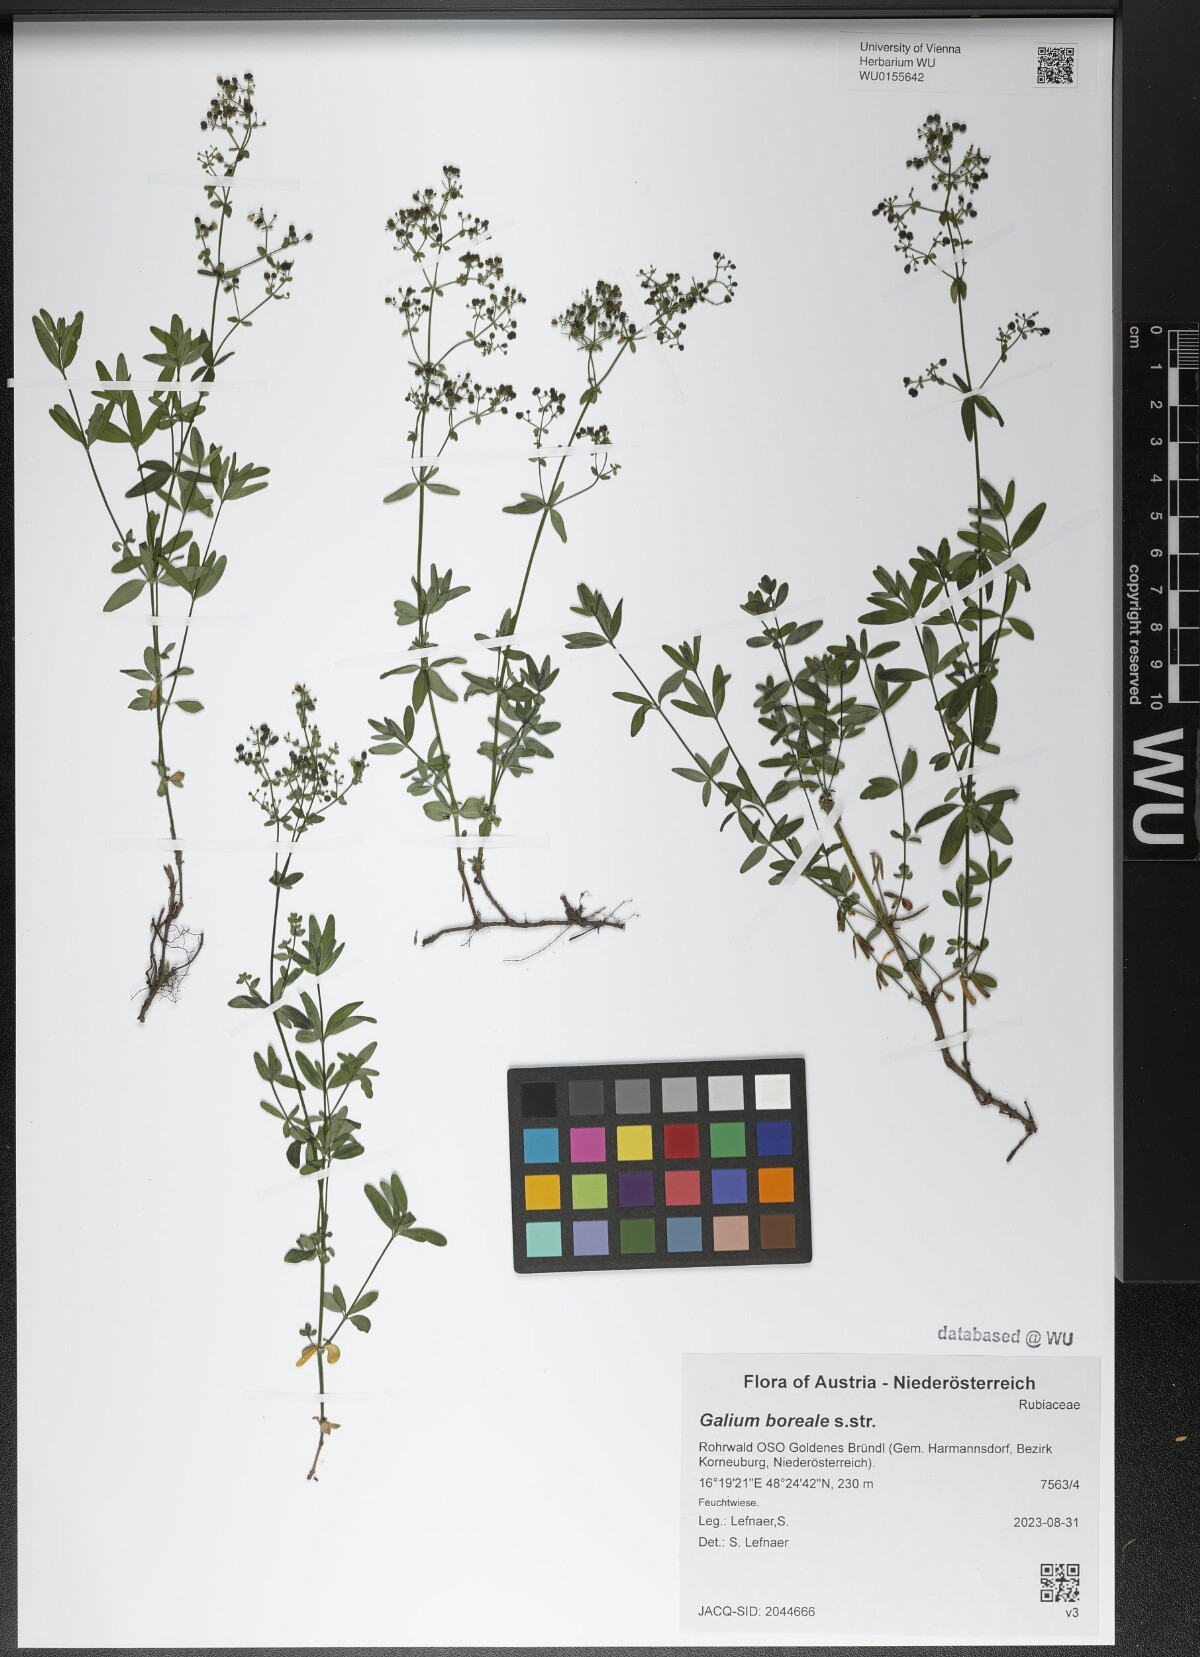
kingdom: Plantae
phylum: Tracheophyta
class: Magnoliopsida
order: Gentianales
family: Rubiaceae
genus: Galium
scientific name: Galium boreale
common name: Northern bedstraw
